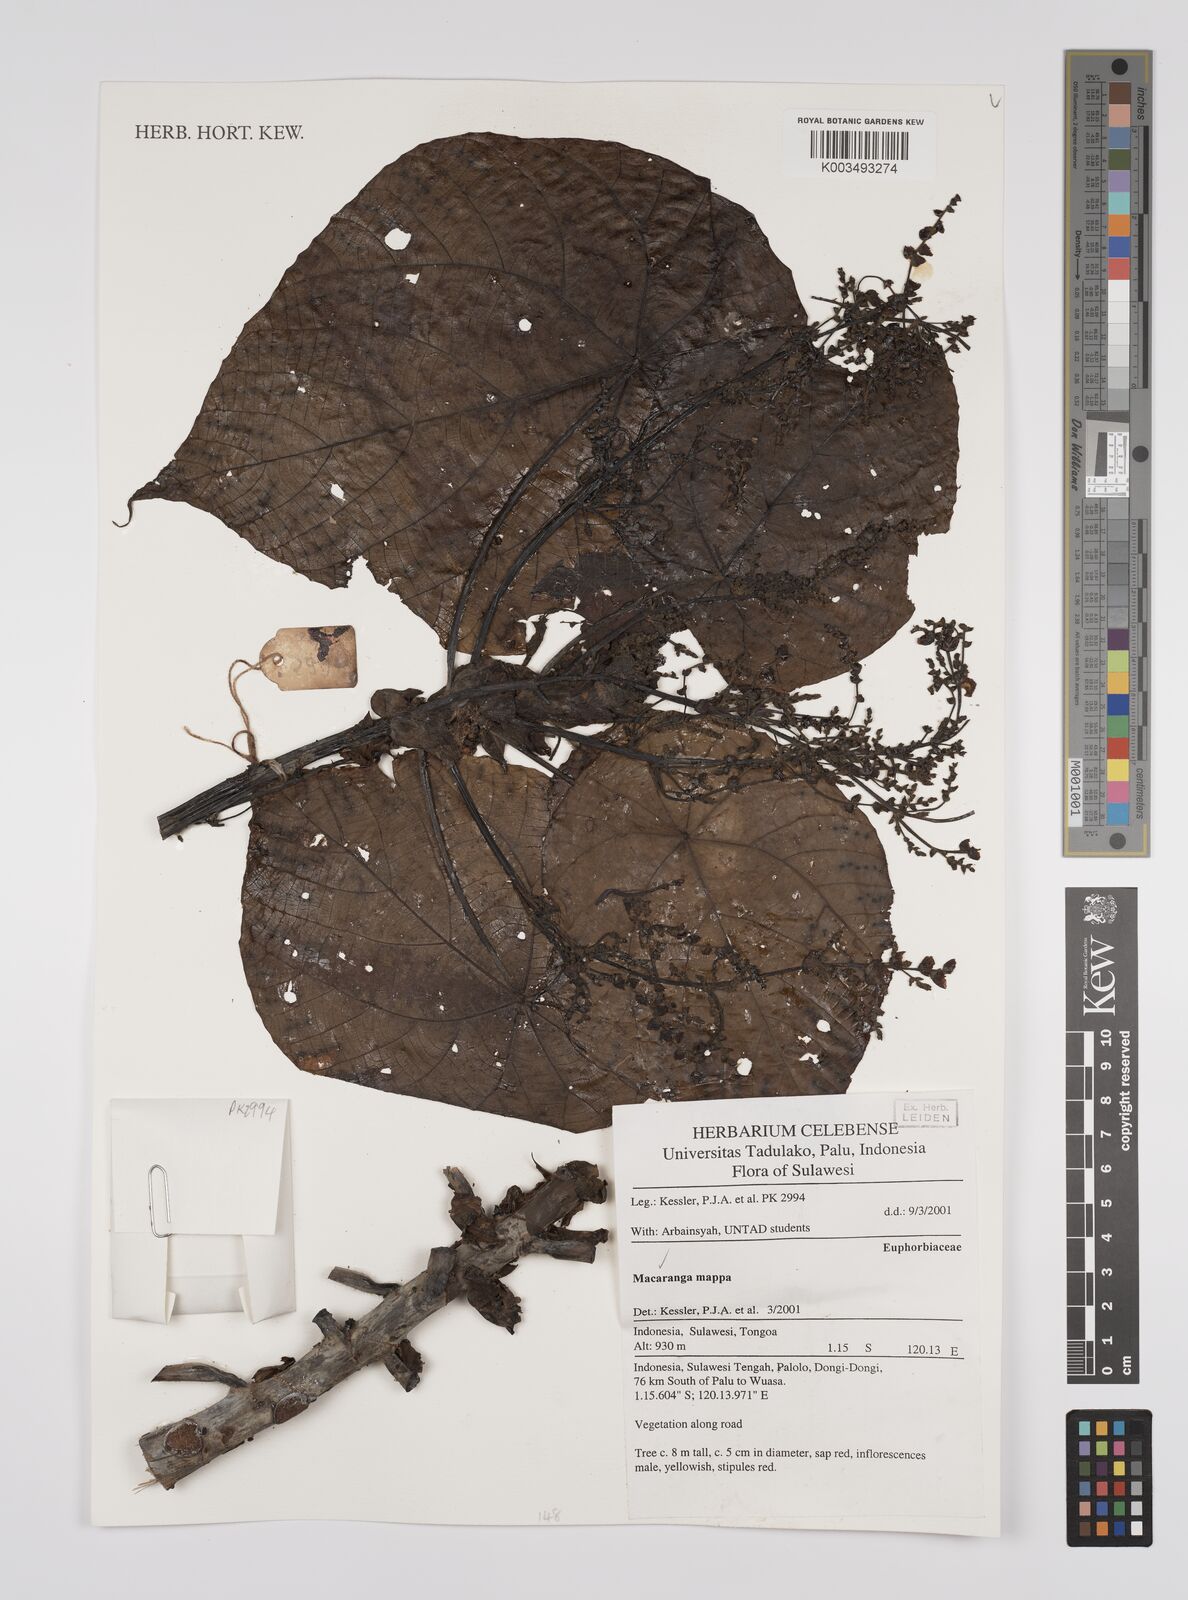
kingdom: Plantae
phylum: Tracheophyta
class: Magnoliopsida
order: Malpighiales
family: Euphorbiaceae
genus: Macaranga
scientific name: Macaranga mappa
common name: Pengua
